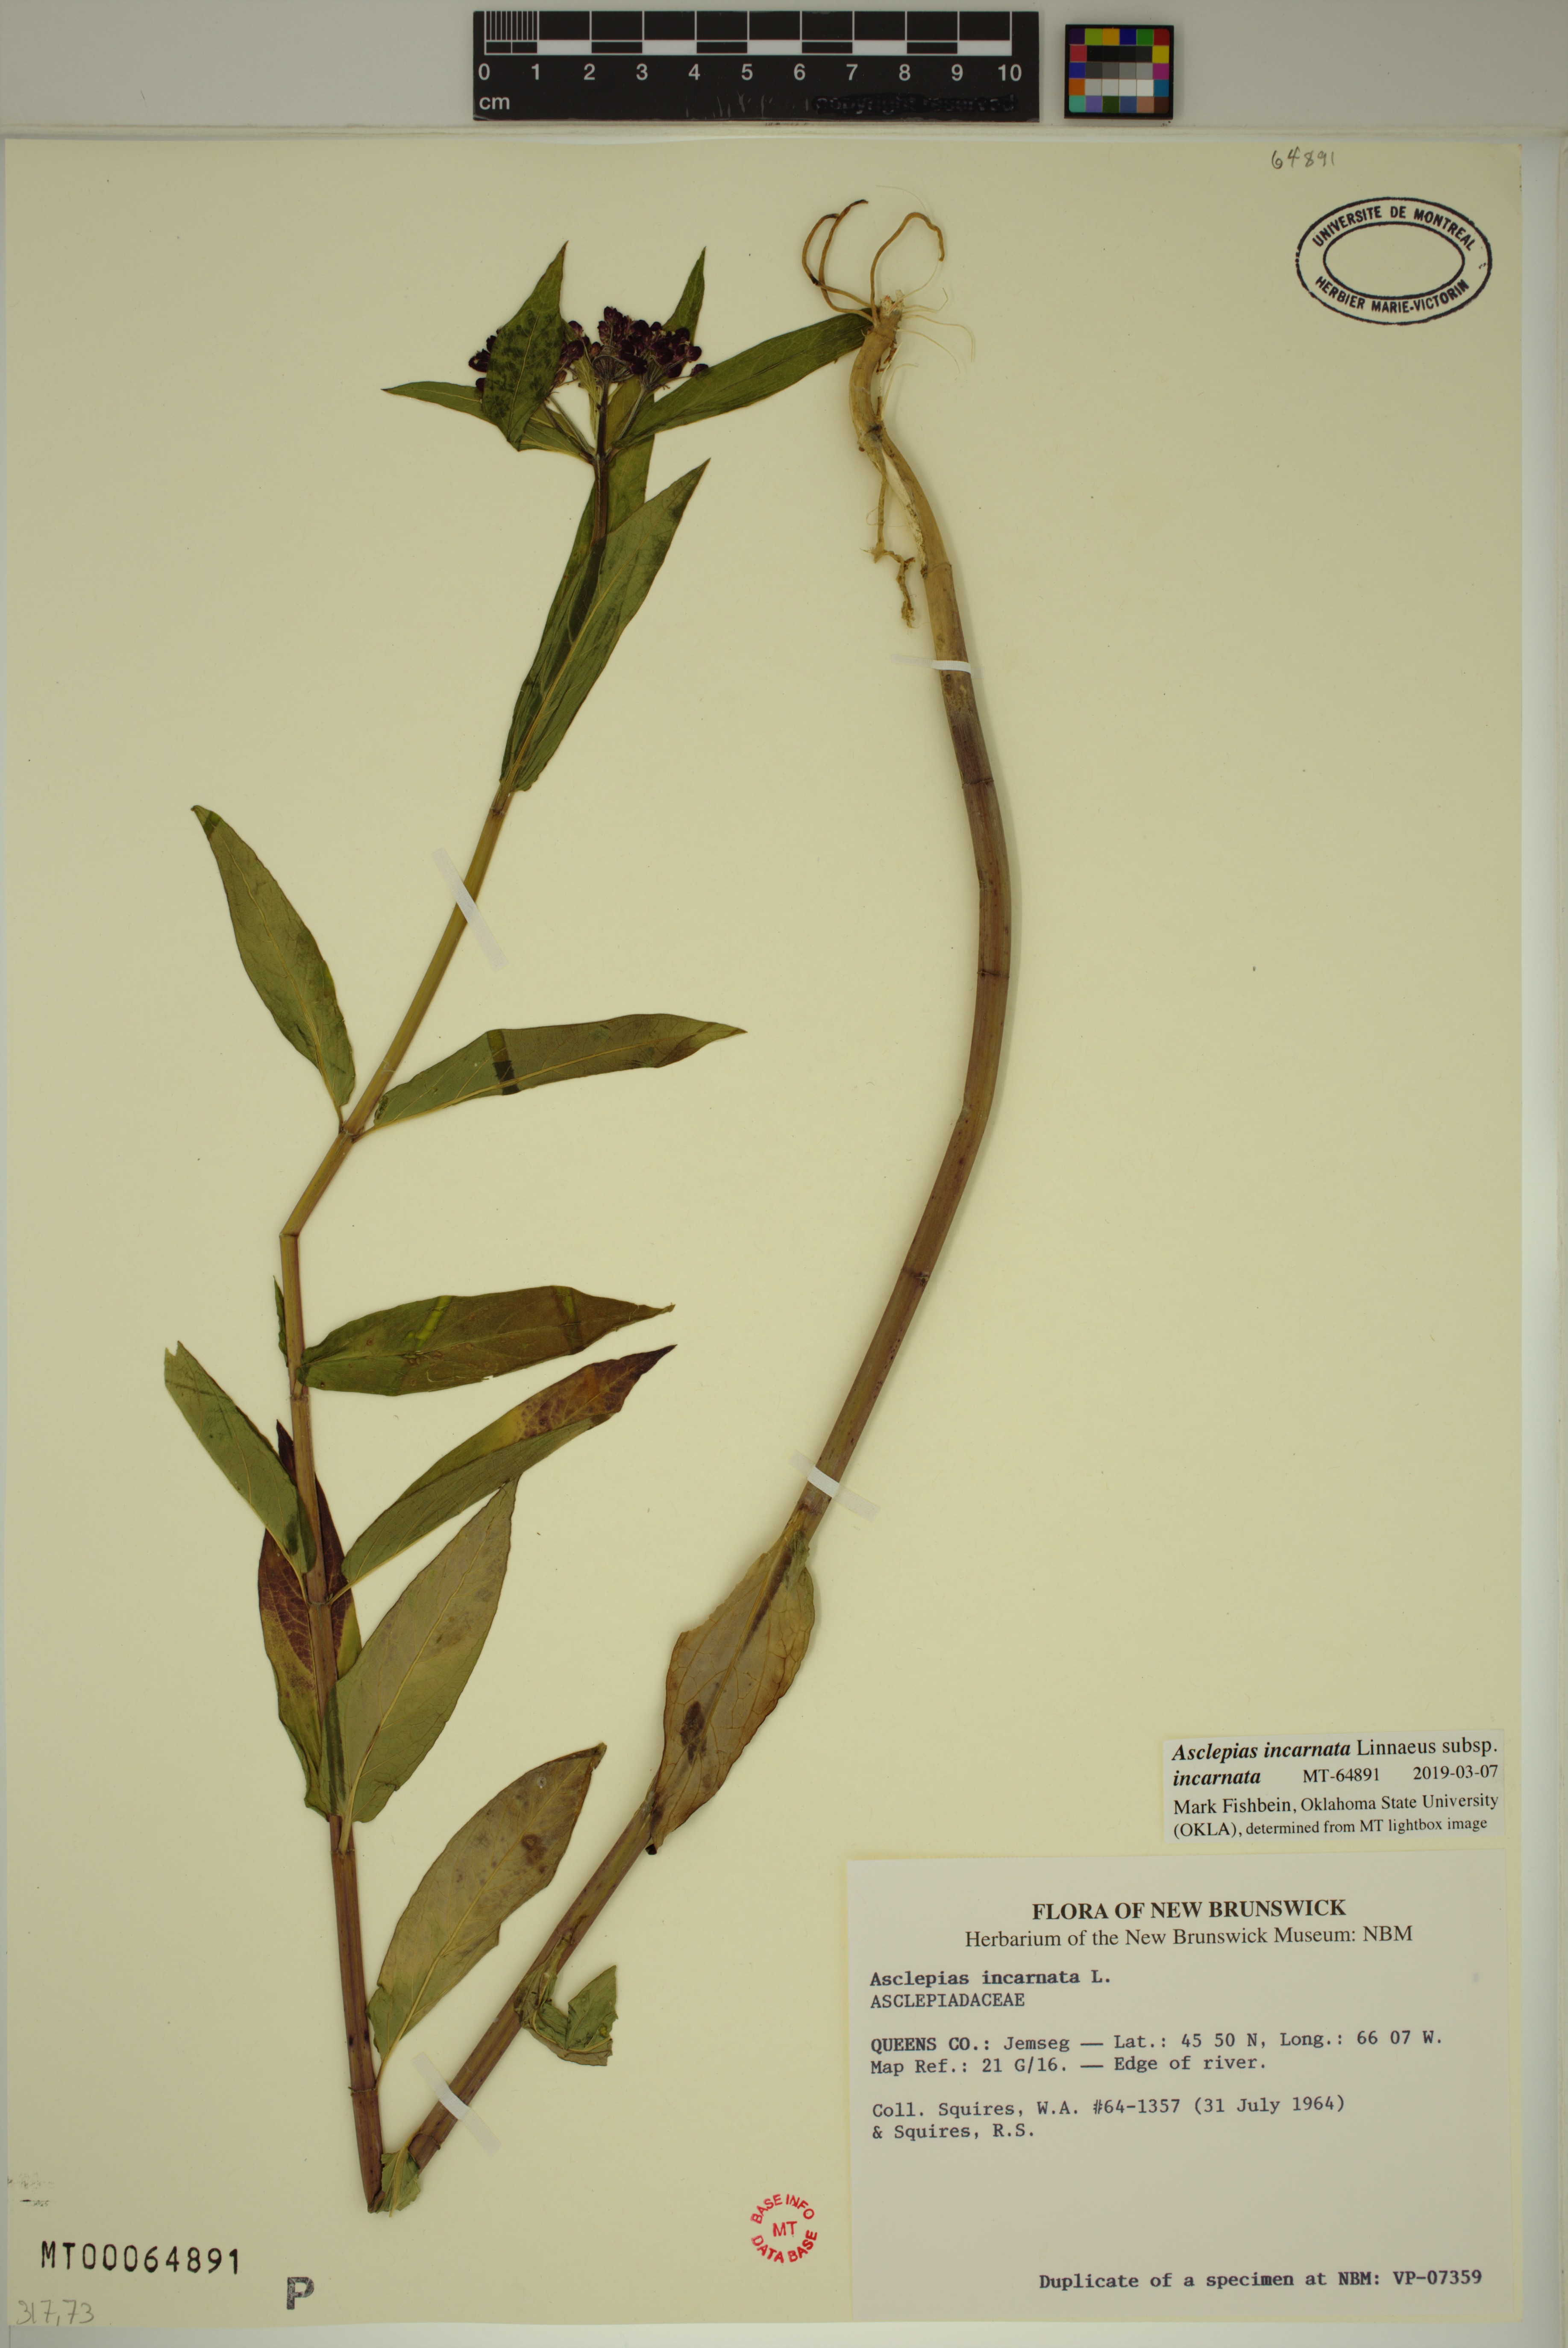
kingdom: Plantae
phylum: Tracheophyta
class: Magnoliopsida
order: Gentianales
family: Apocynaceae
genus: Asclepias
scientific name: Asclepias incarnata
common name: Swamp milkweed
